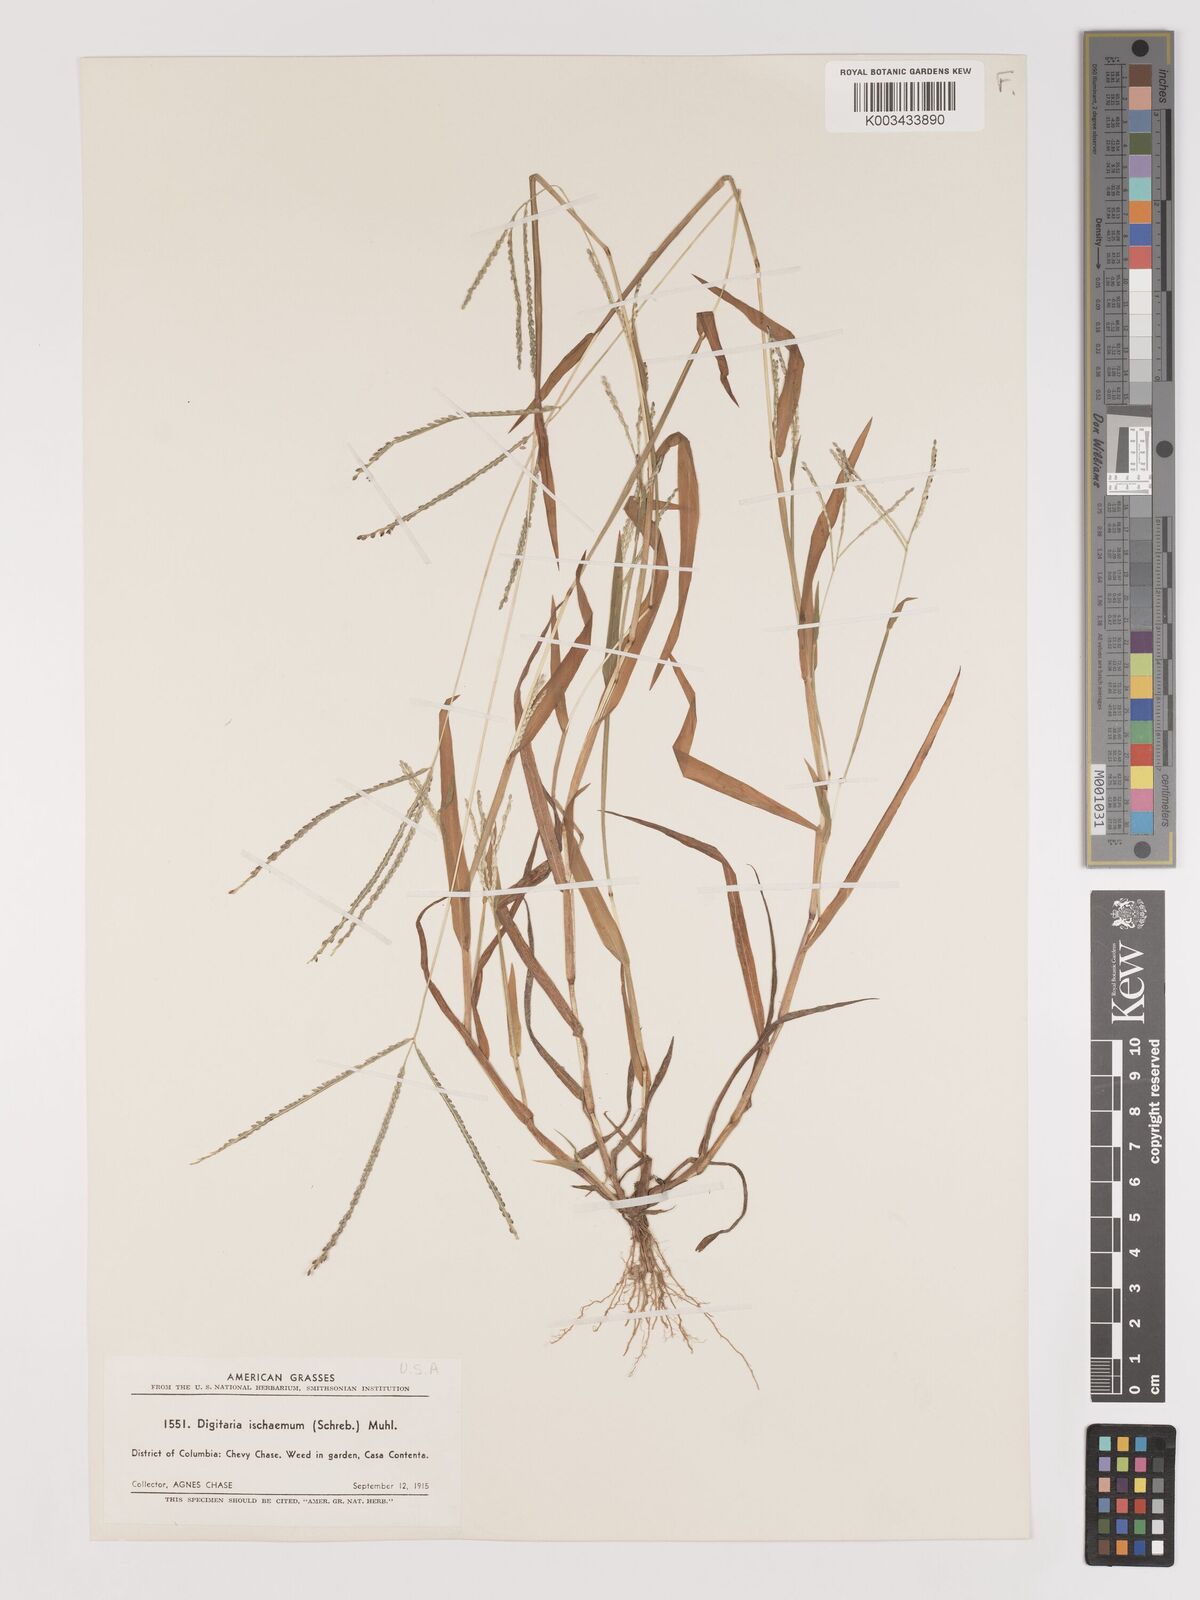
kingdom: Plantae
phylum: Tracheophyta
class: Liliopsida
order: Poales
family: Poaceae
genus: Digitaria
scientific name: Digitaria ischaemum
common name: Smooth crabgrass
